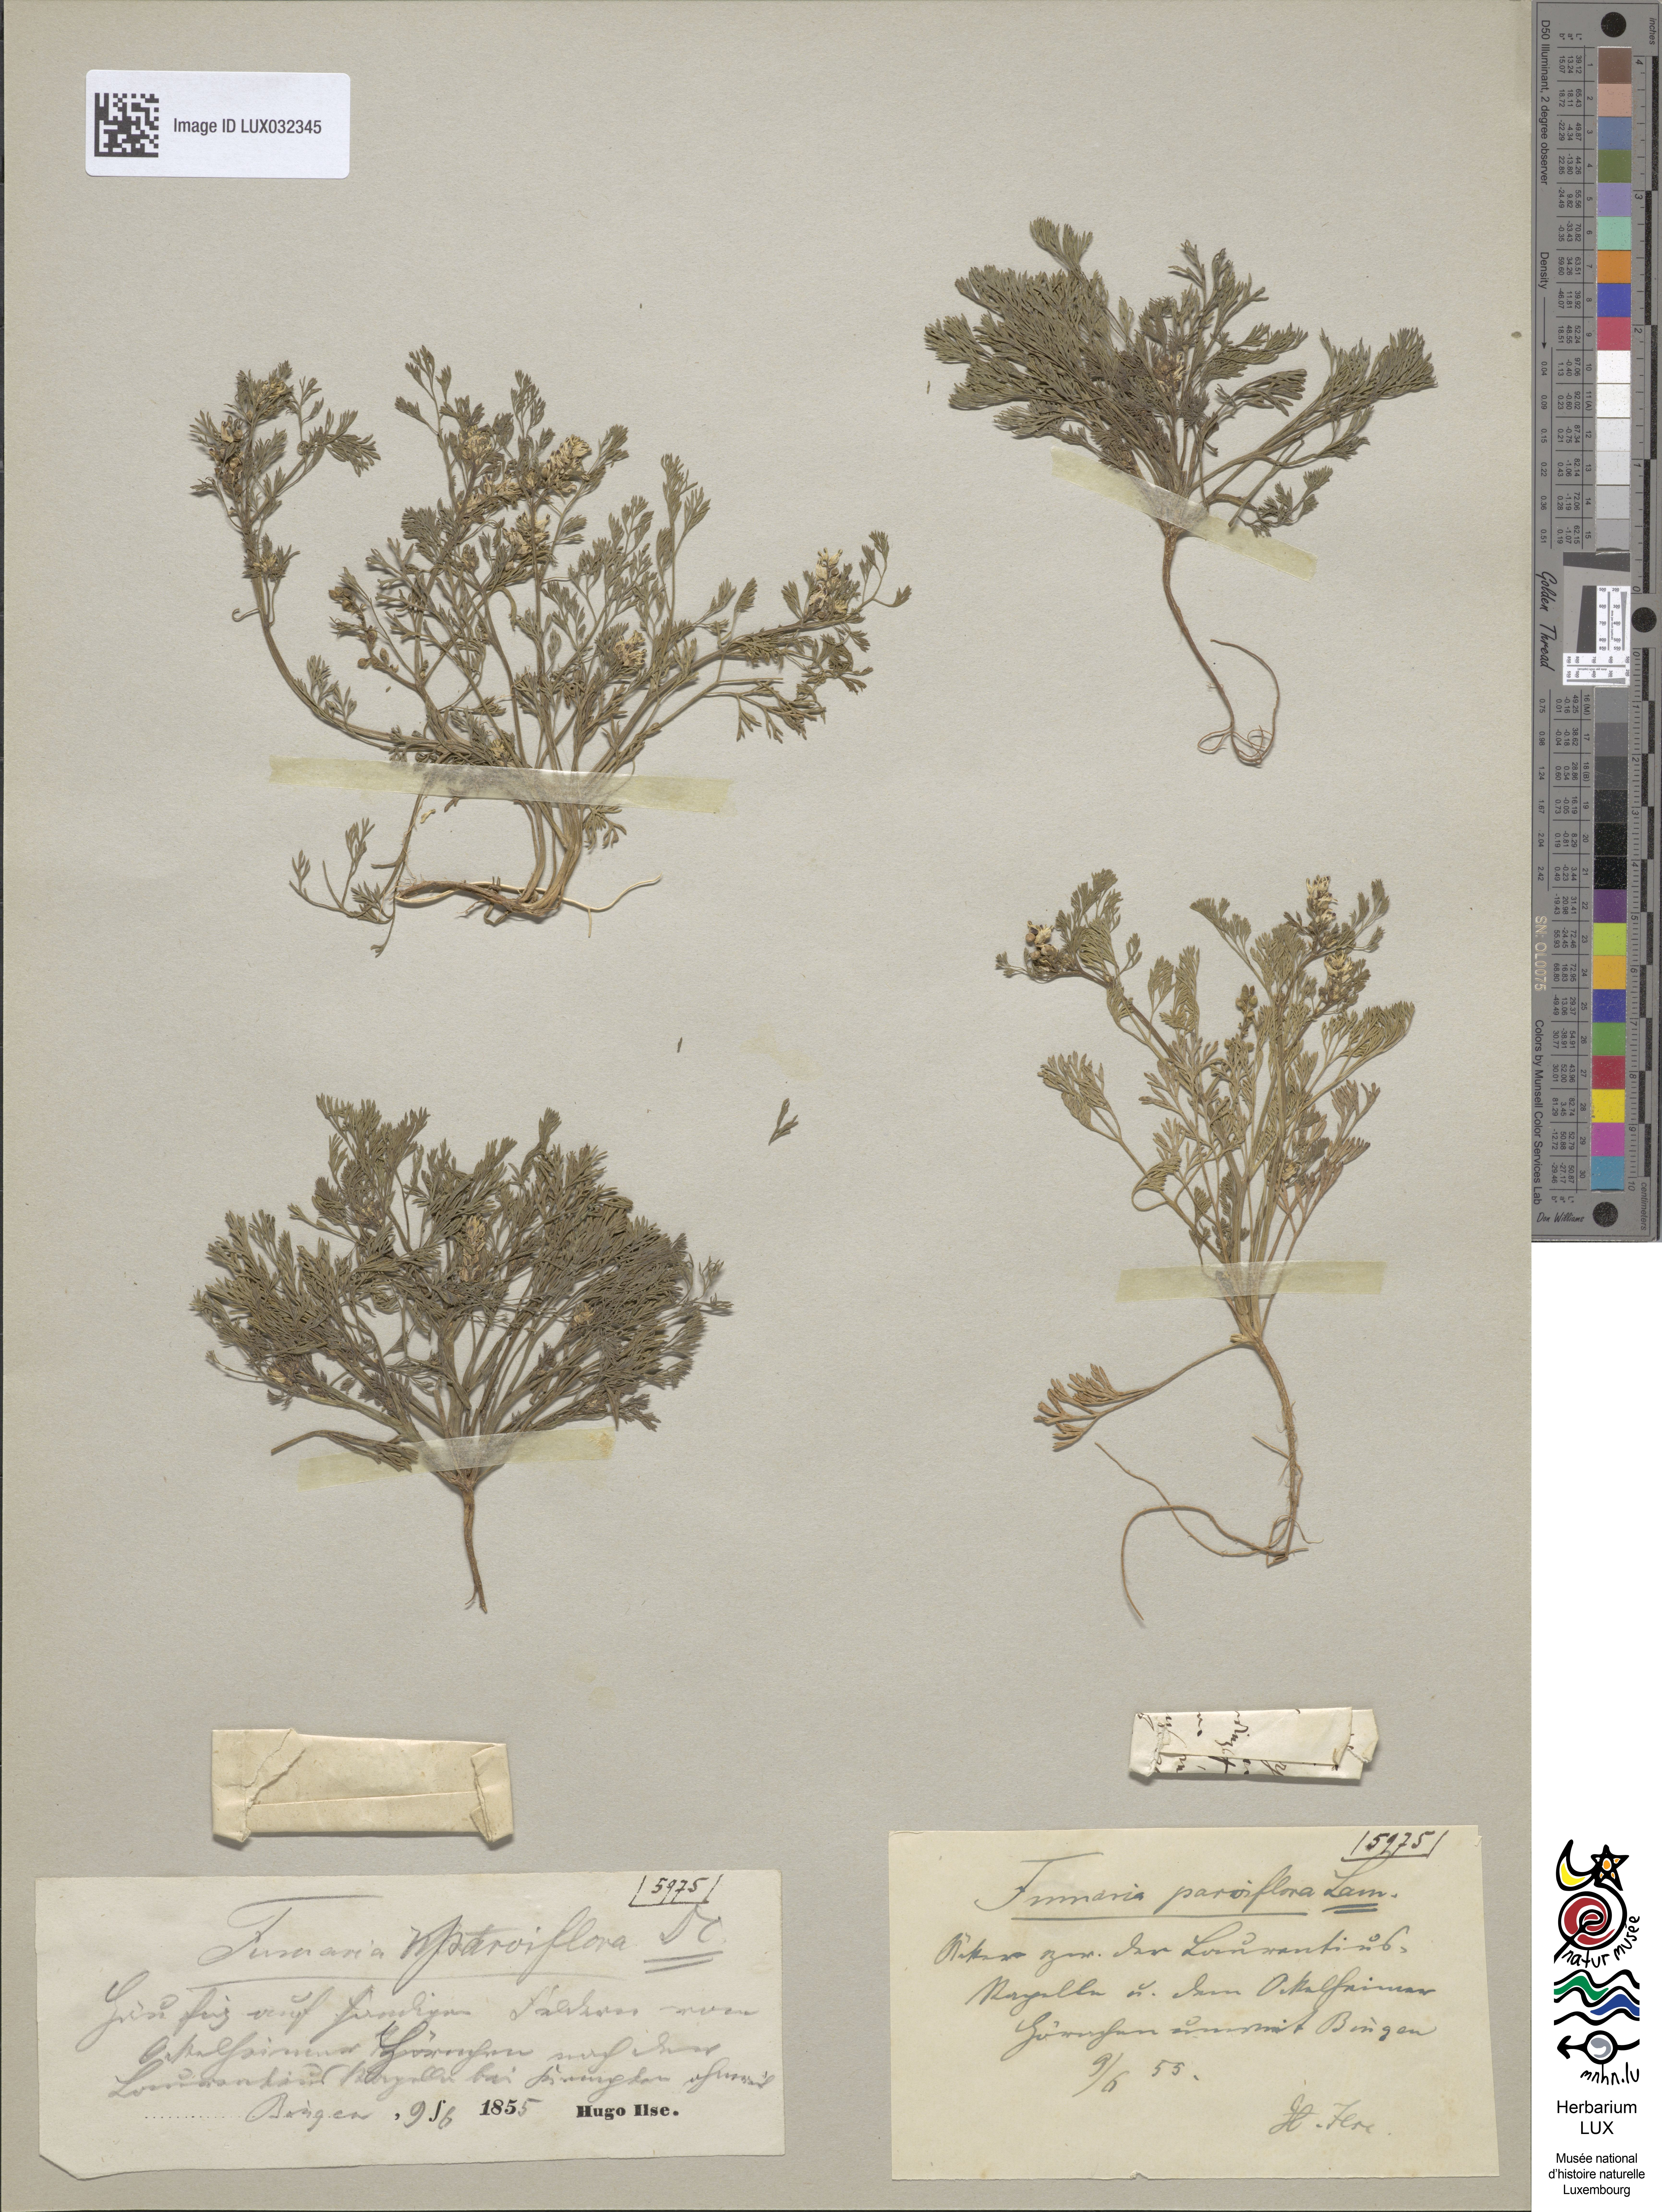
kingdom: Plantae
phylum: Tracheophyta
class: Magnoliopsida
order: Ranunculales
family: Papaveraceae
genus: Fumaria
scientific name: Fumaria parviflora
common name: Fine-leaved fumitory
